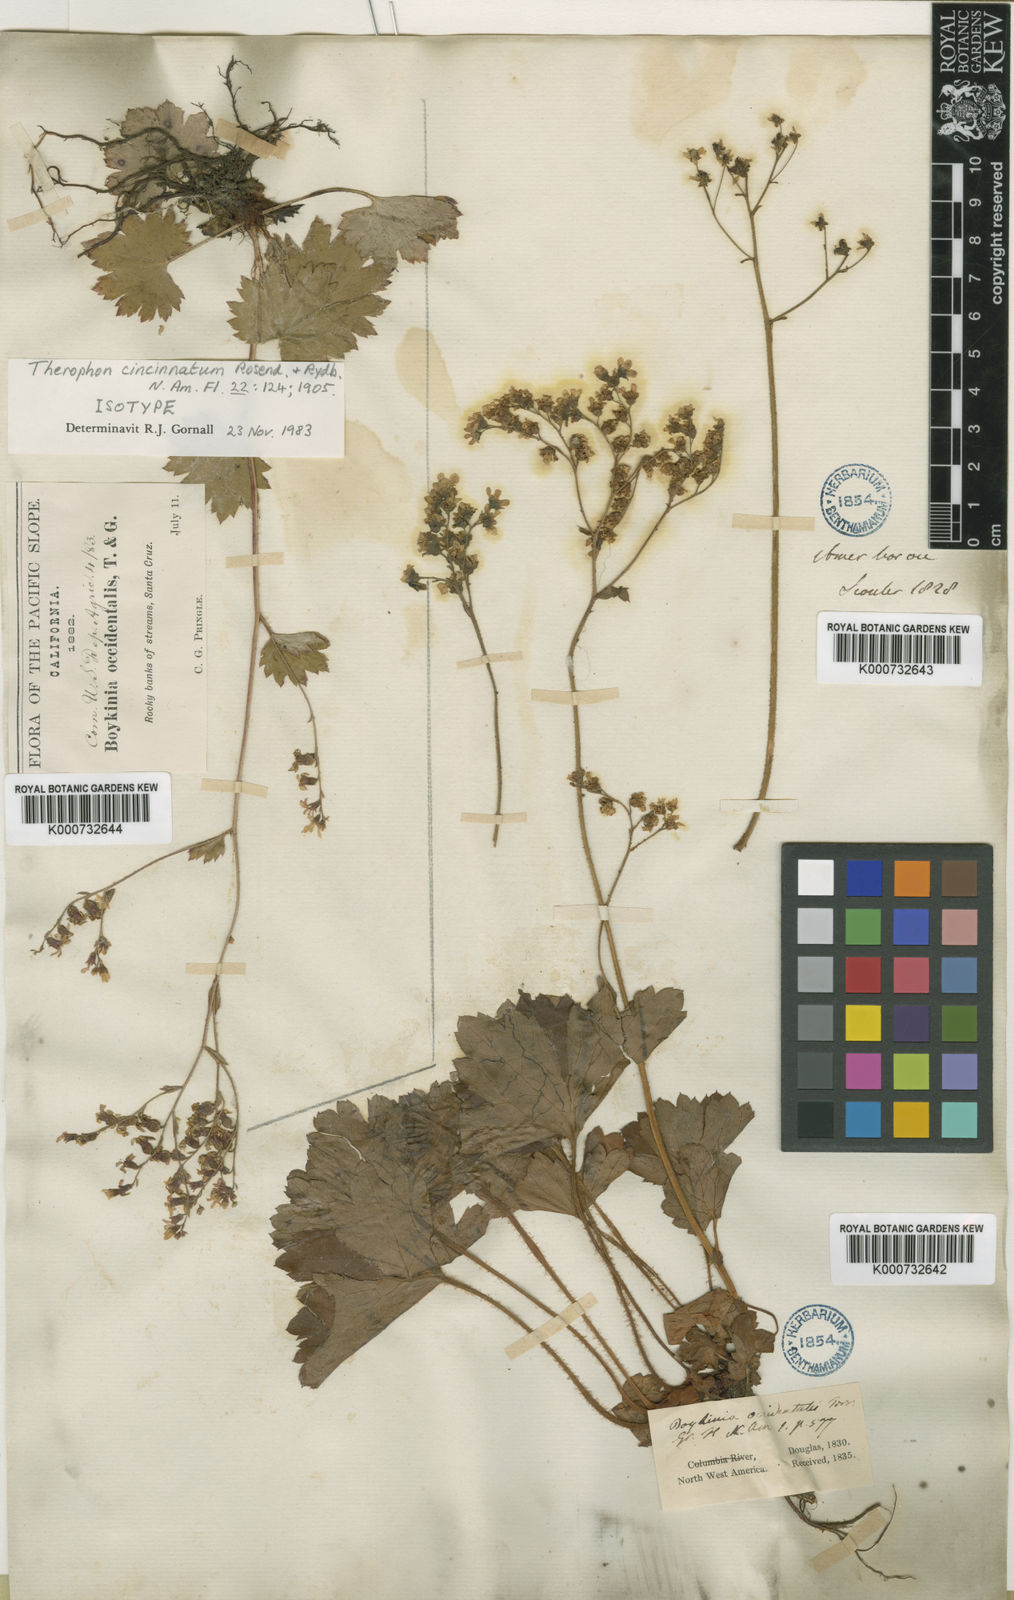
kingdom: Plantae
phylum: Tracheophyta
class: Magnoliopsida
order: Saxifragales
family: Saxifragaceae
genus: Boykinia
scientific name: Boykinia occidentalis
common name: Coast boykinia
